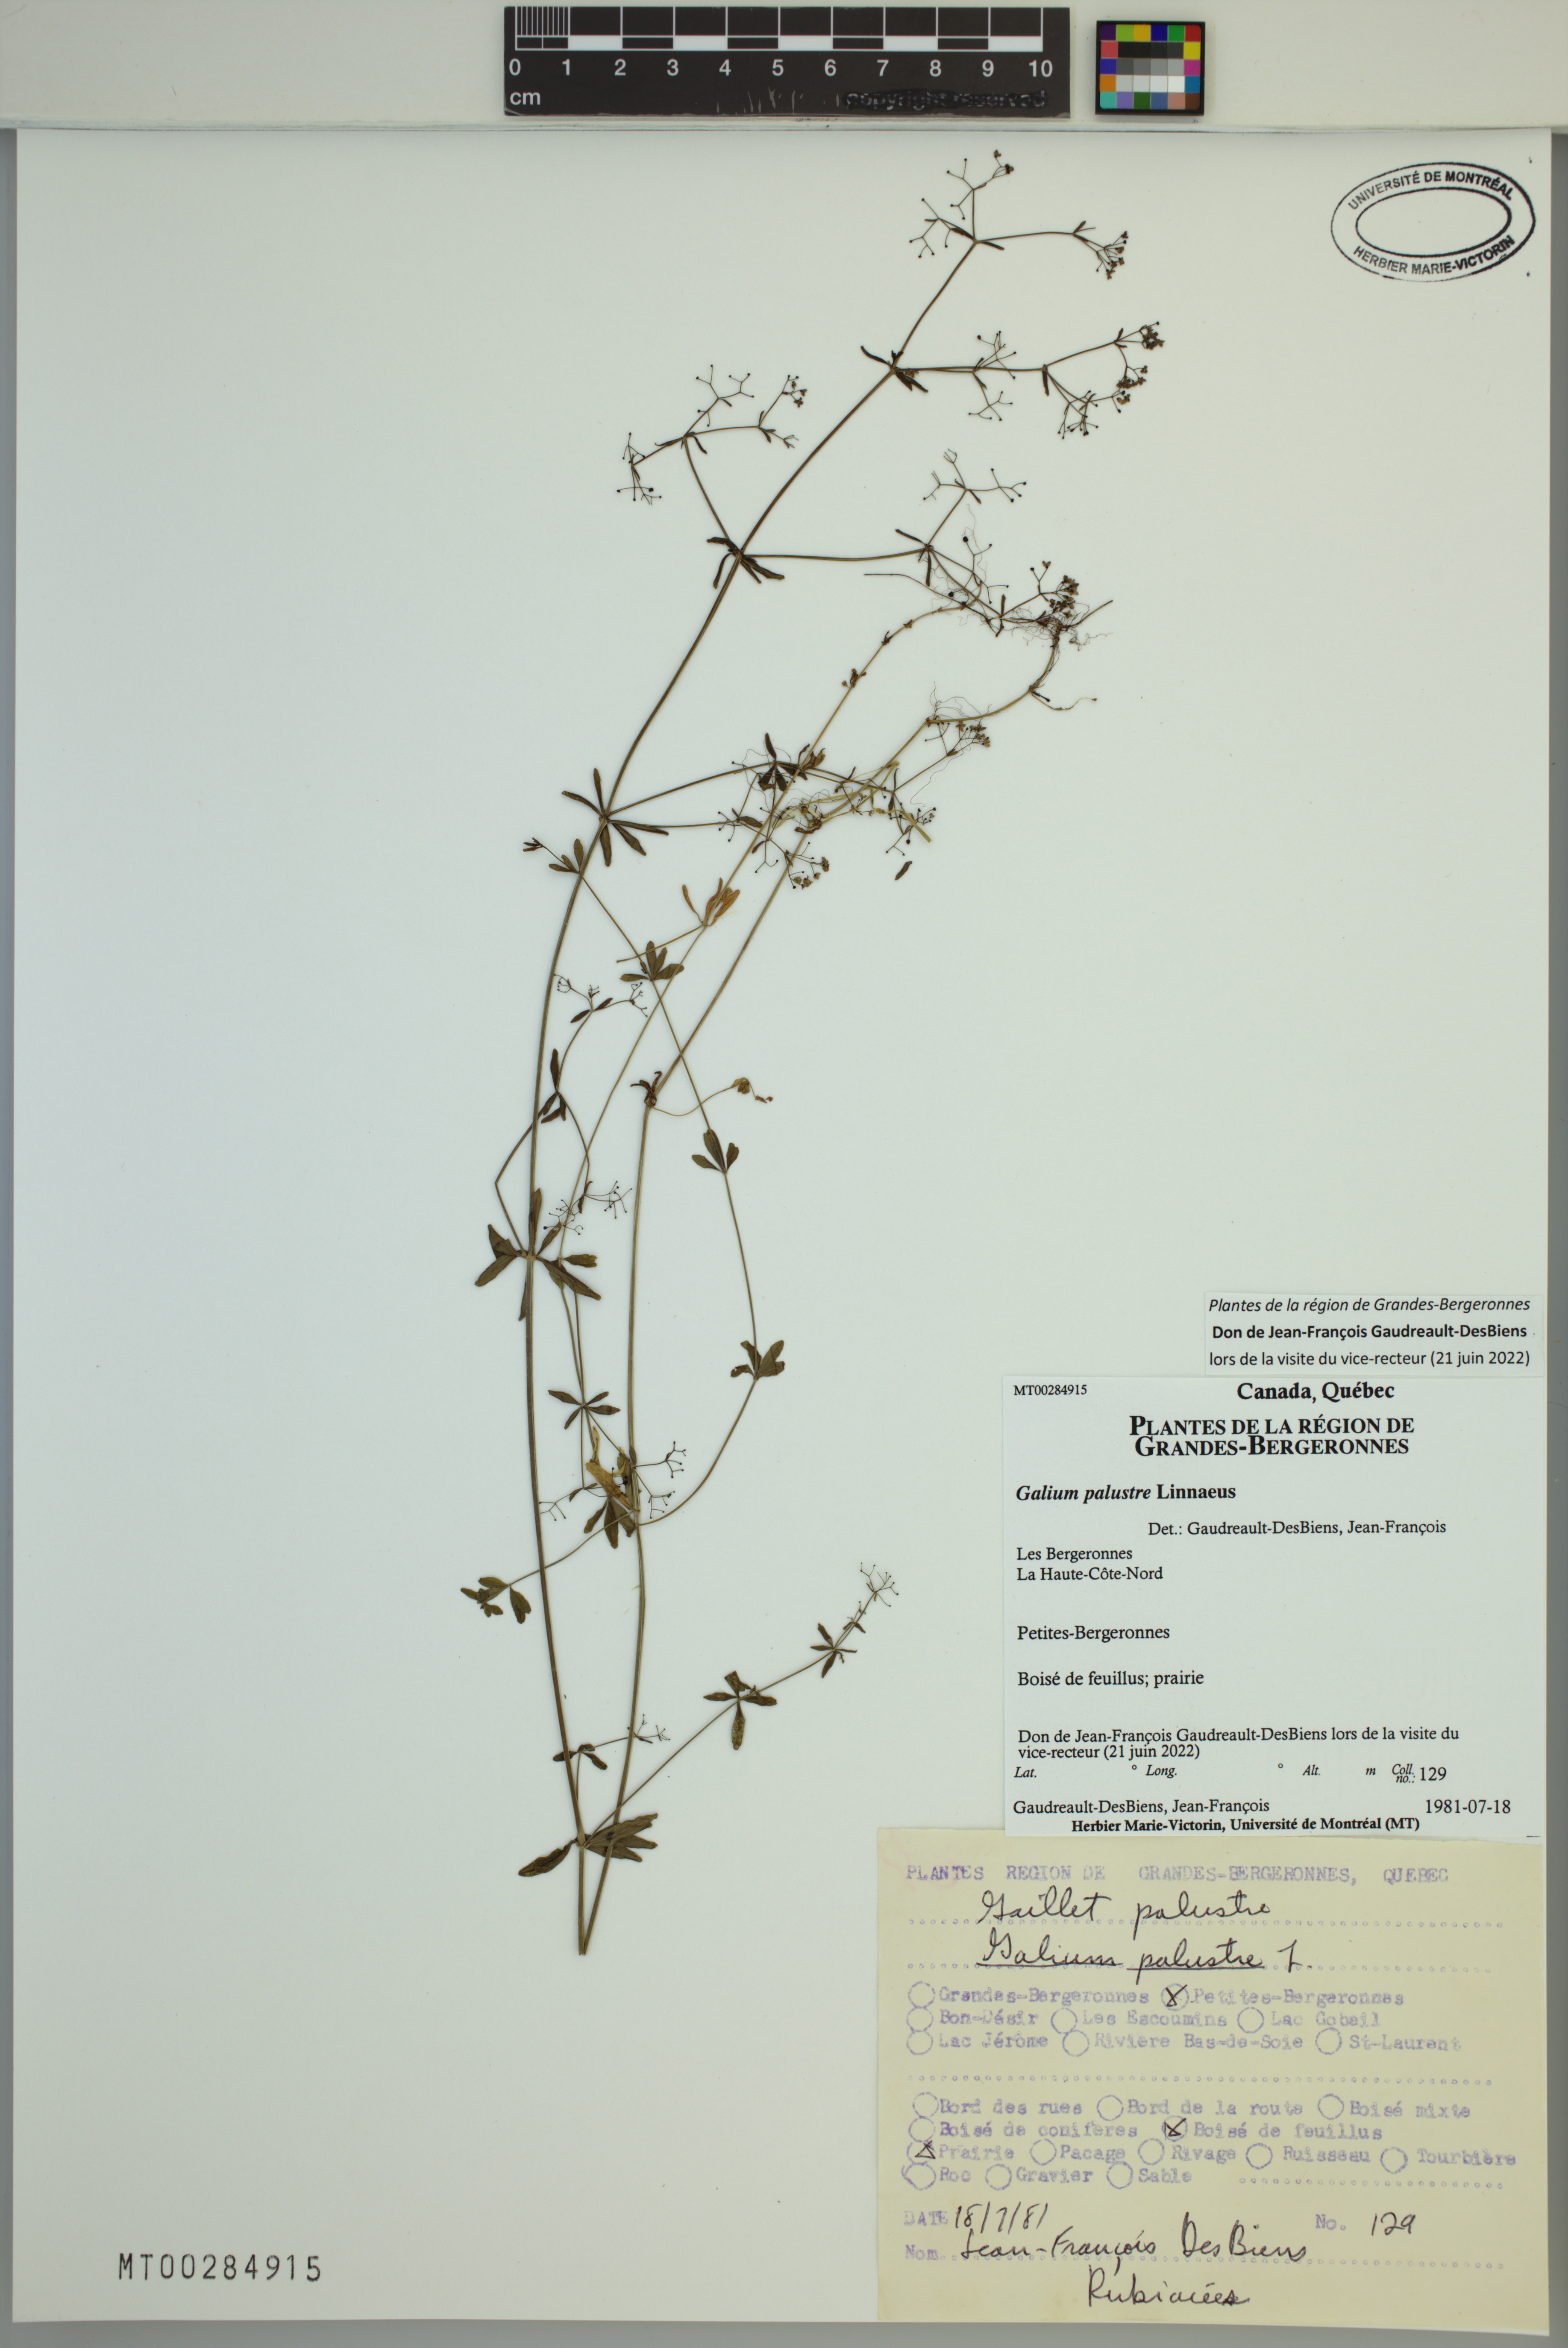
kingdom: Plantae
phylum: Tracheophyta
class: Magnoliopsida
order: Gentianales
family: Rubiaceae
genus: Galium
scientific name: Galium palustre
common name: Common marsh-bedstraw
